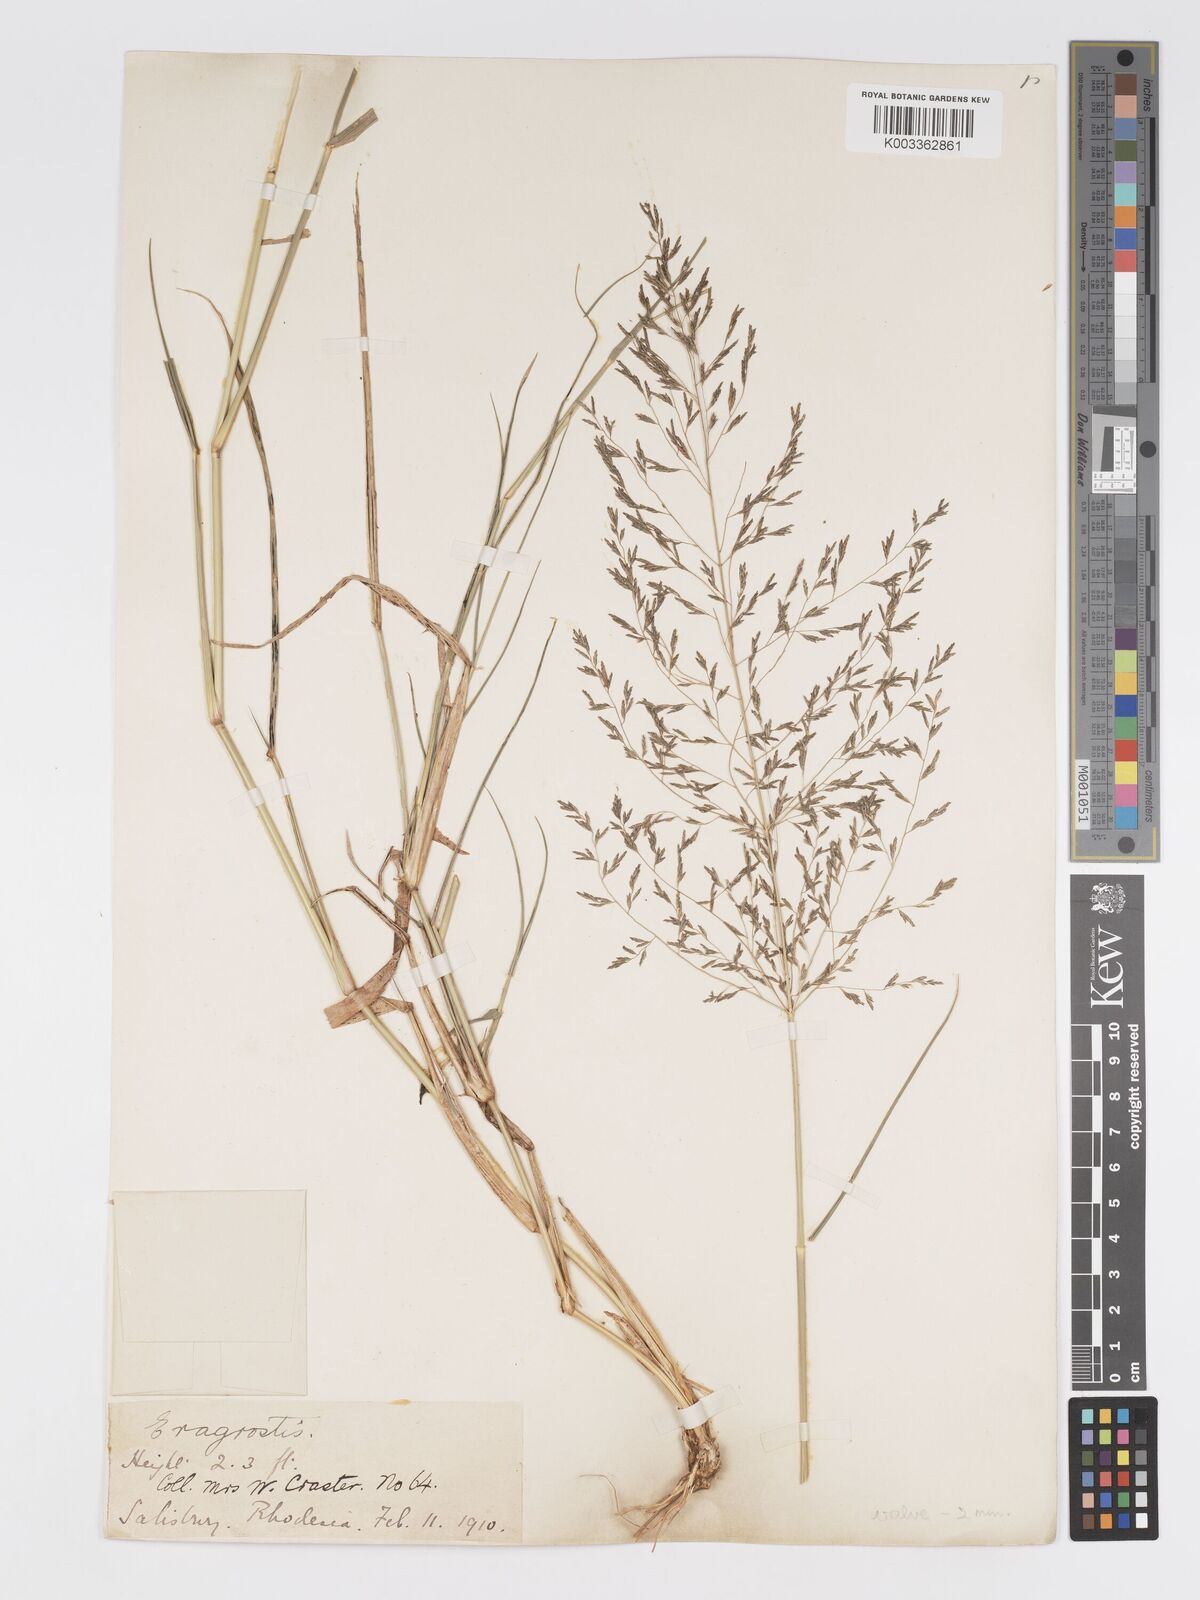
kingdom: Plantae
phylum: Tracheophyta
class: Liliopsida
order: Poales
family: Poaceae
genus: Eragrostis
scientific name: Eragrostis cylindriflora
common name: Cylinderflower lovegrass
